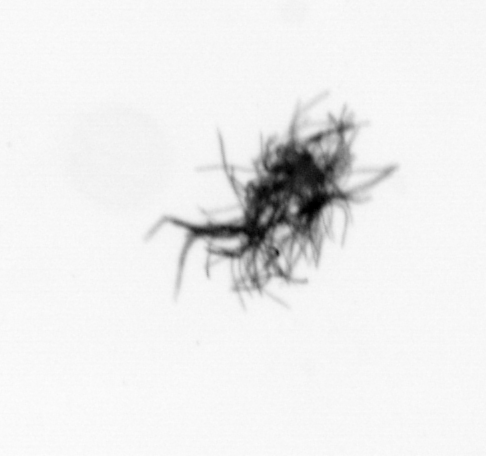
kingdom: Bacteria
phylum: Cyanobacteria
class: Cyanobacteriia
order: Cyanobacteriales
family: Microcoleaceae
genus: Trichodesmium
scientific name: Trichodesmium
